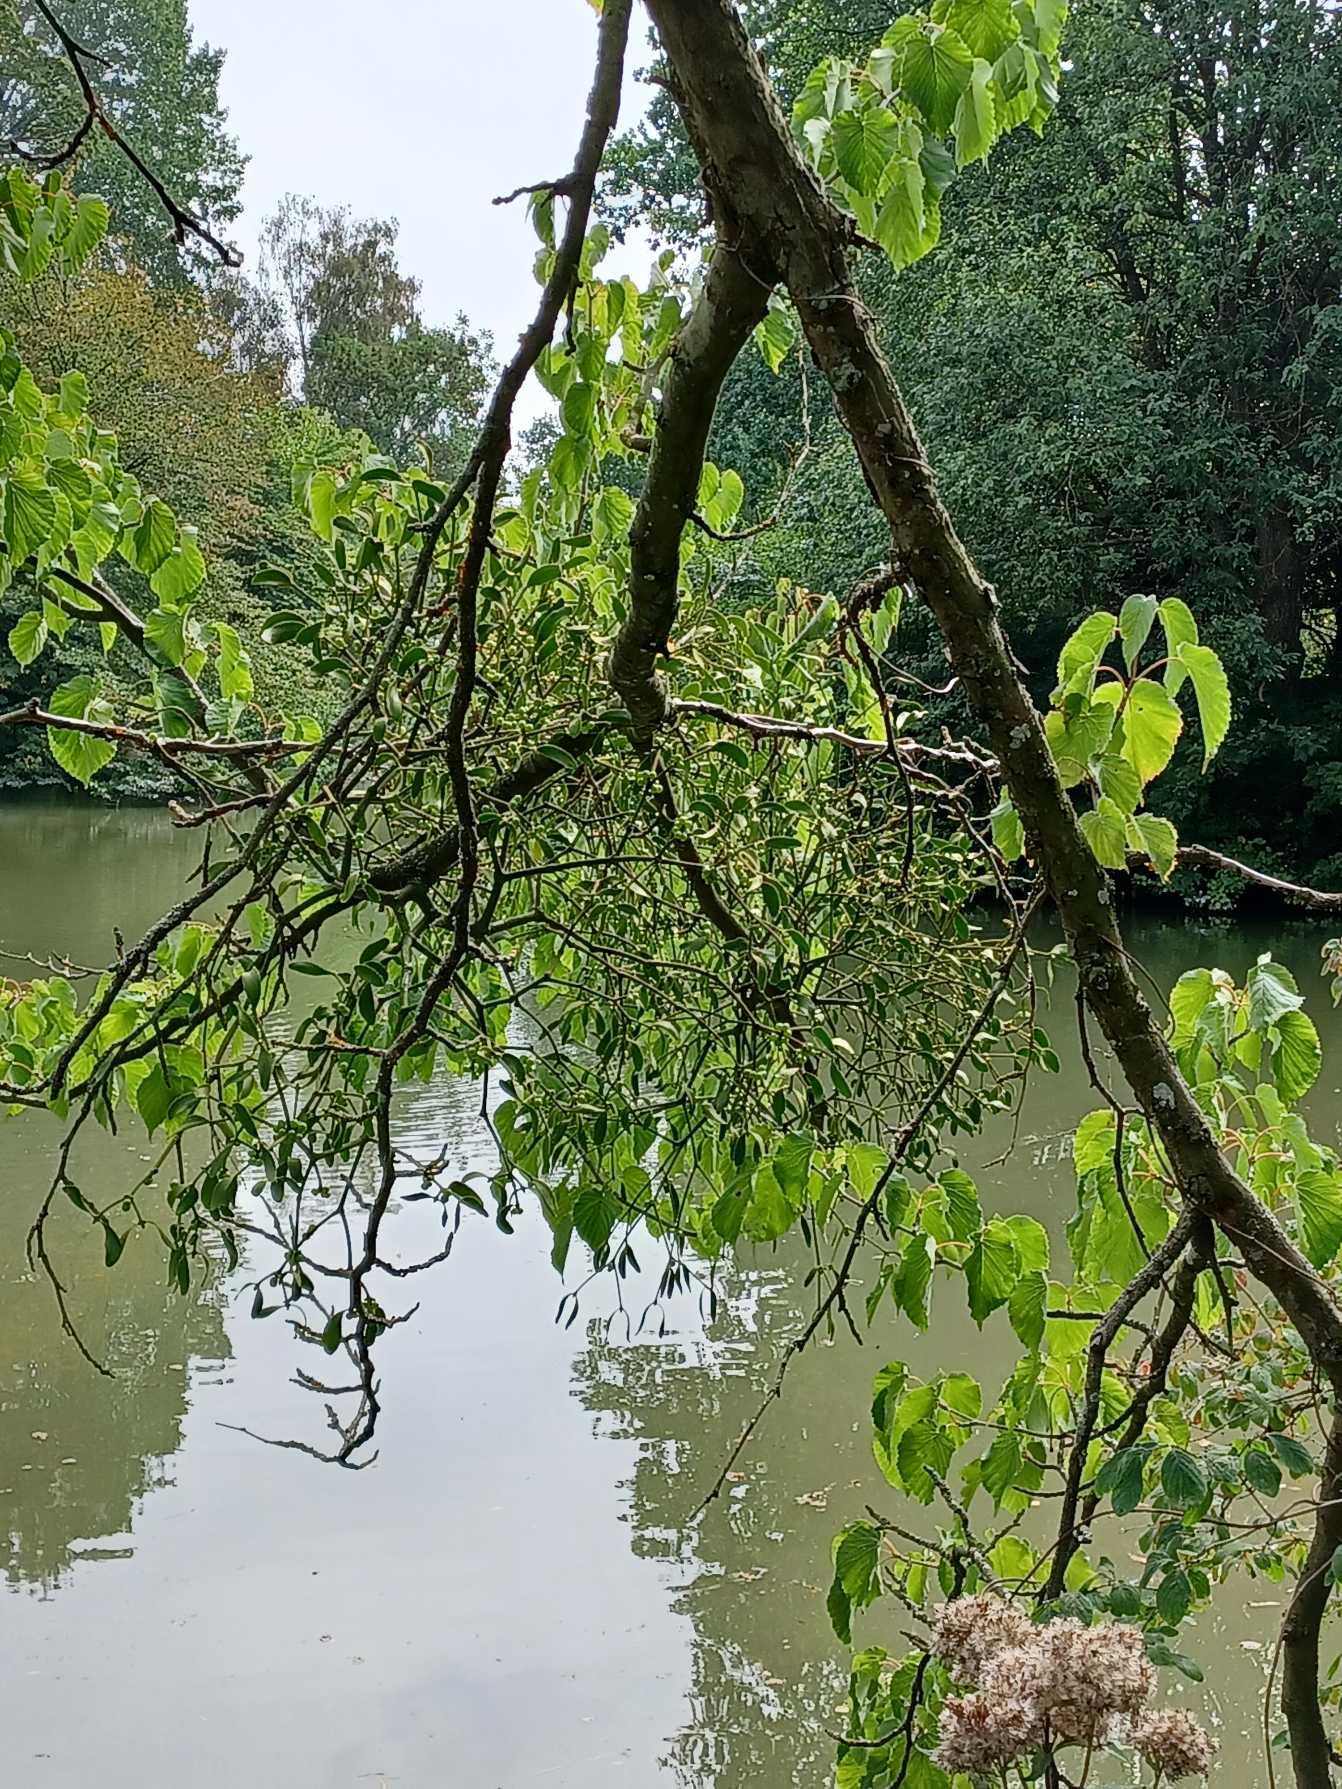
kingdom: Plantae
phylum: Tracheophyta
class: Magnoliopsida
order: Santalales
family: Viscaceae
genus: Viscum
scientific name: Viscum album
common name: Mistelten
